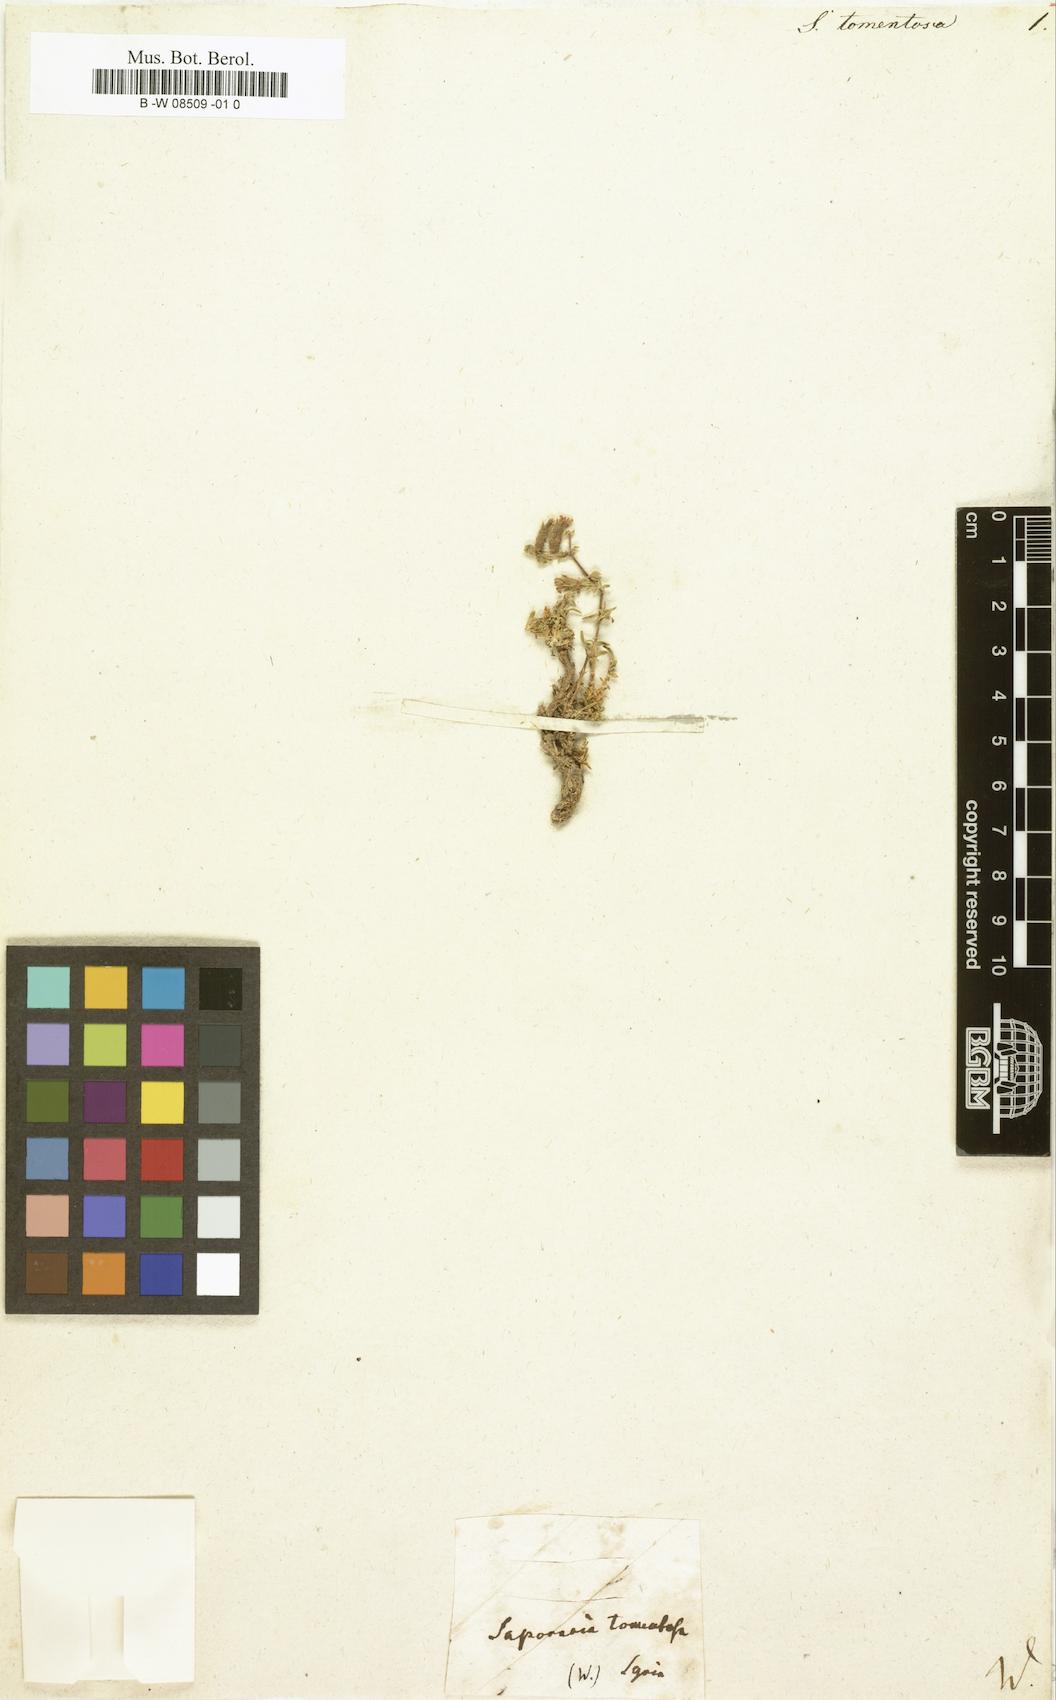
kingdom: Plantae
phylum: Tracheophyta
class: Magnoliopsida
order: Caryophyllales
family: Caryophyllaceae
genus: Saponaria
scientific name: Saponaria
